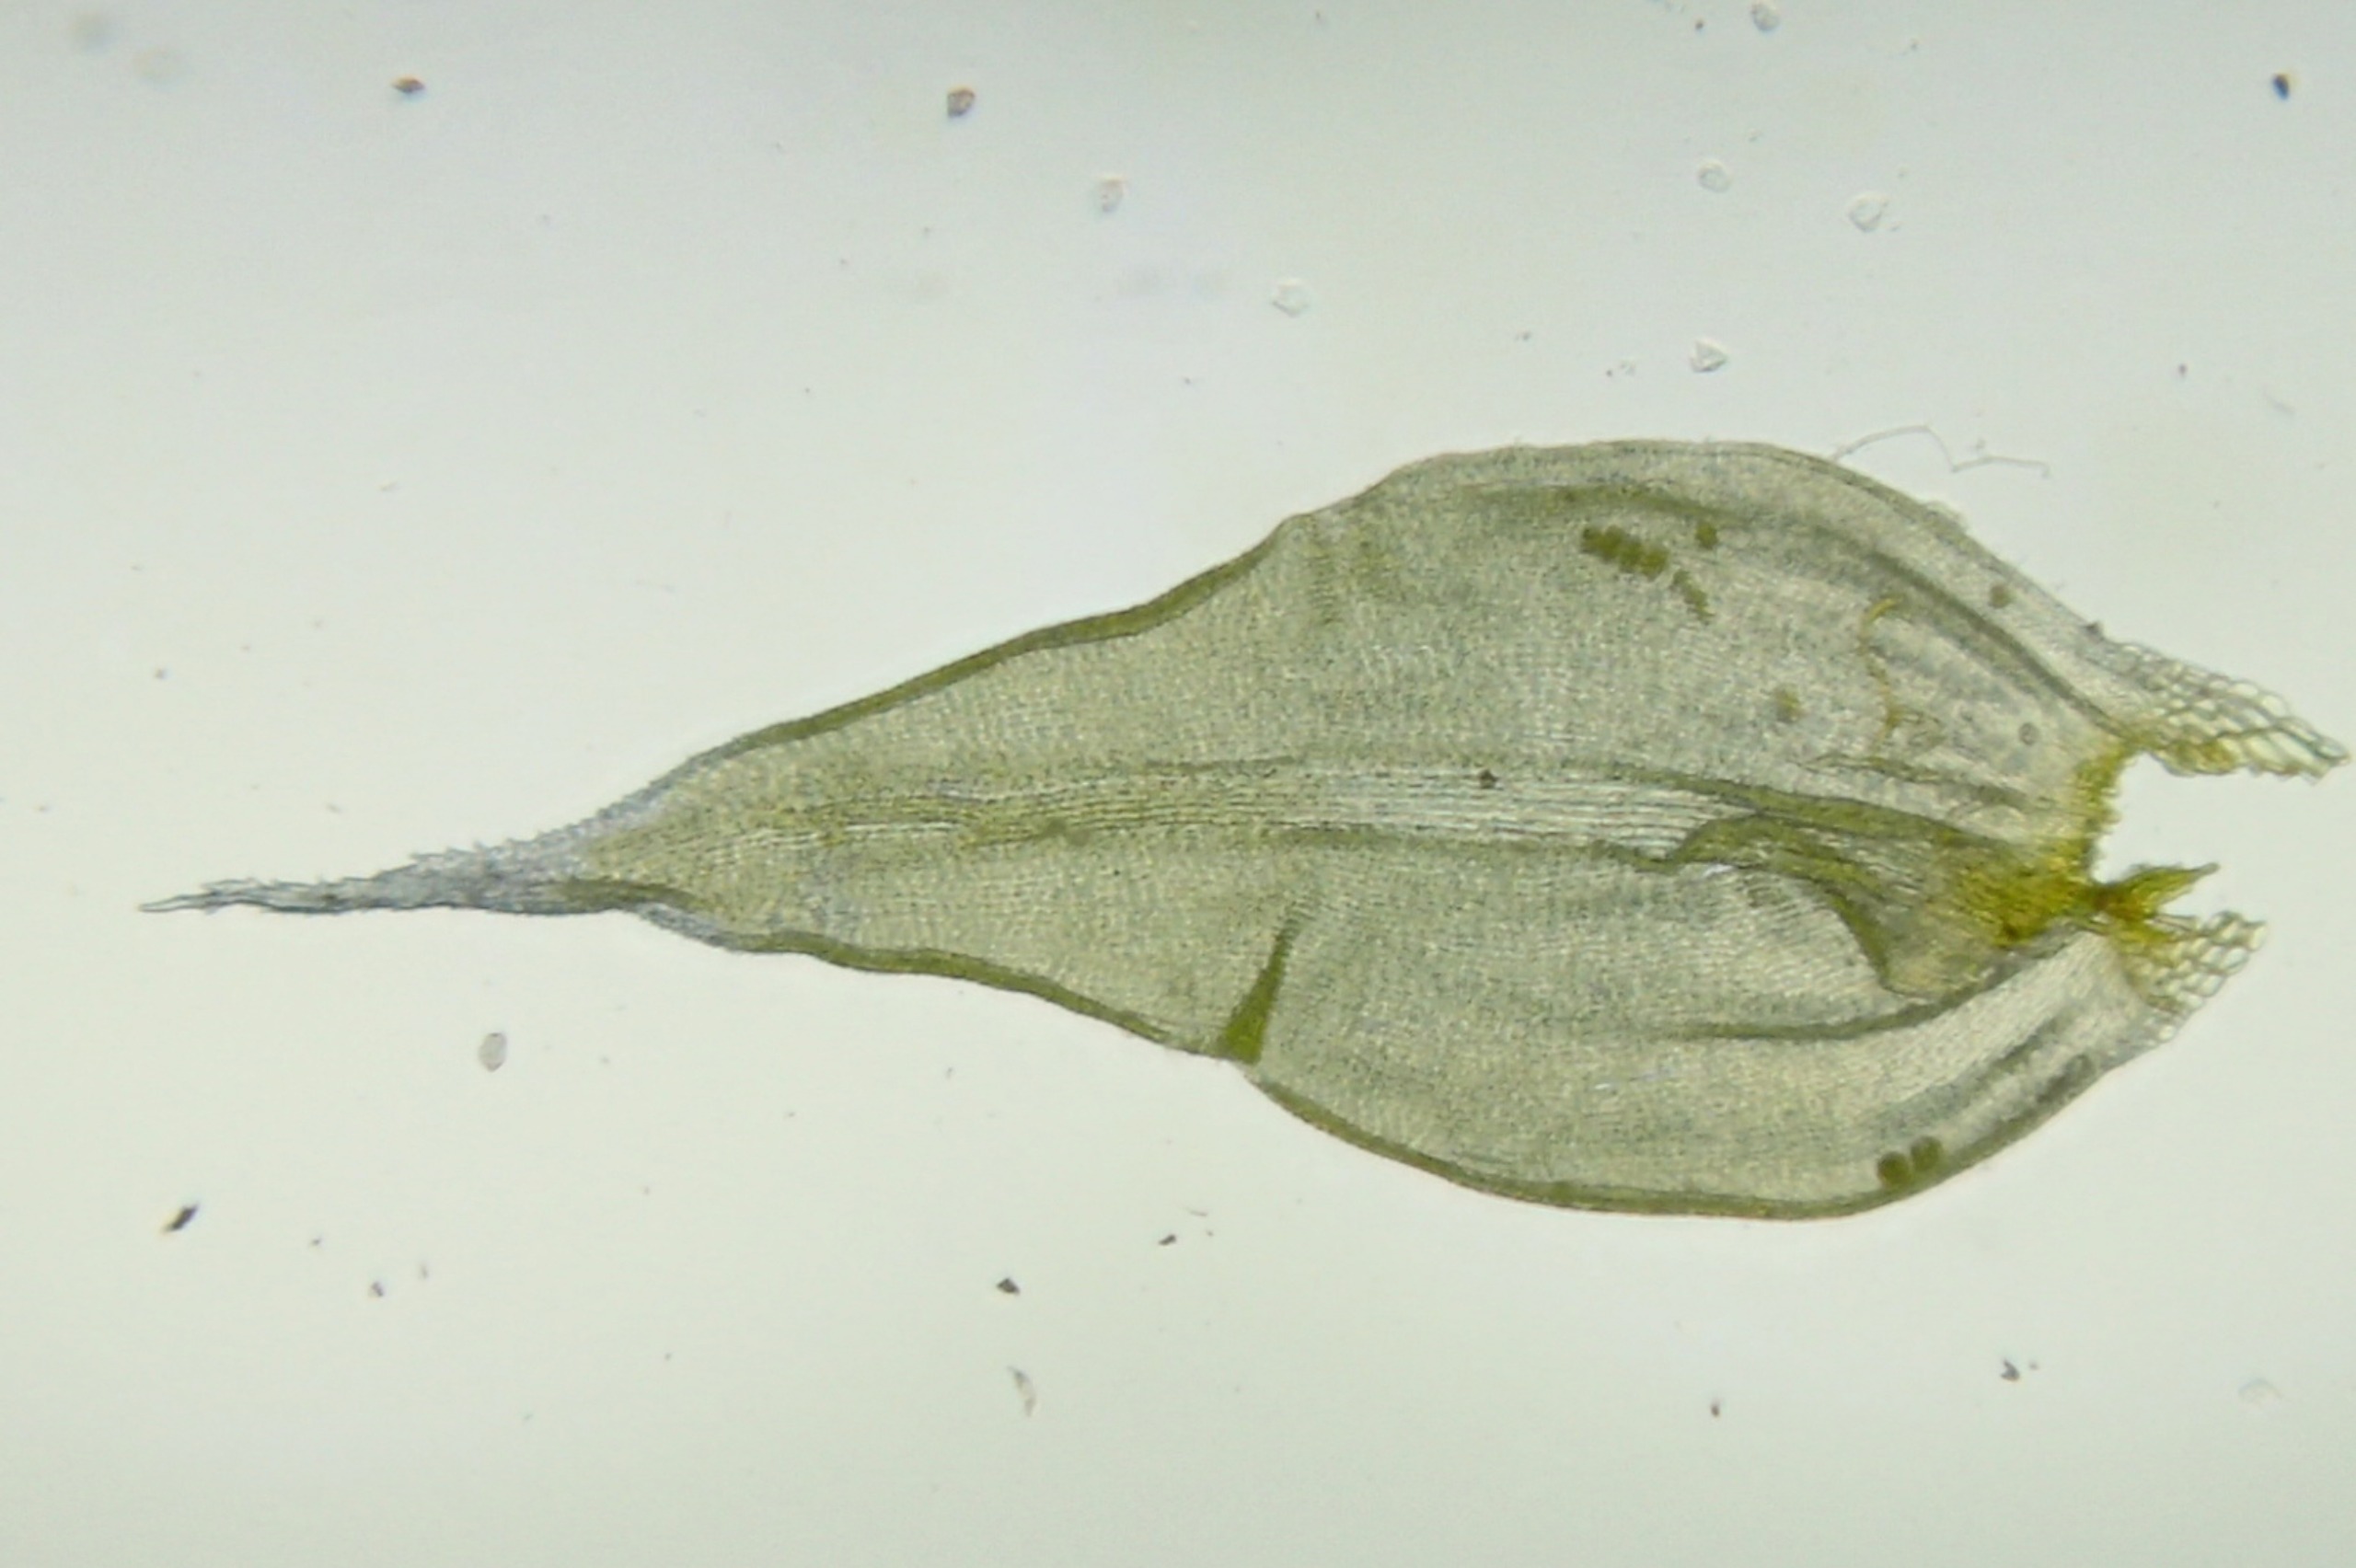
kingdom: Plantae
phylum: Bryophyta
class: Bryopsida
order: Grimmiales
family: Grimmiaceae
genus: Niphotrichum
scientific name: Niphotrichum elongatum
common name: Lang børstemos
